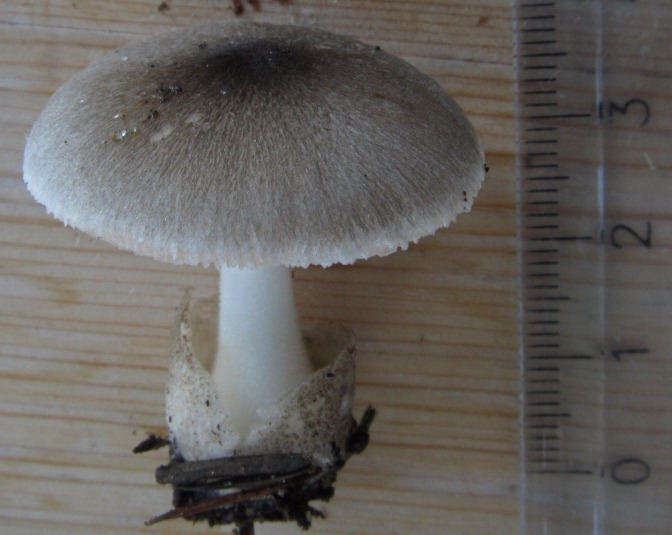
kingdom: Fungi
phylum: Basidiomycota
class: Agaricomycetes
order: Agaricales
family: Pluteaceae
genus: Volvariella
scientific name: Volvariella murinella
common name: musegrå posesvamp
